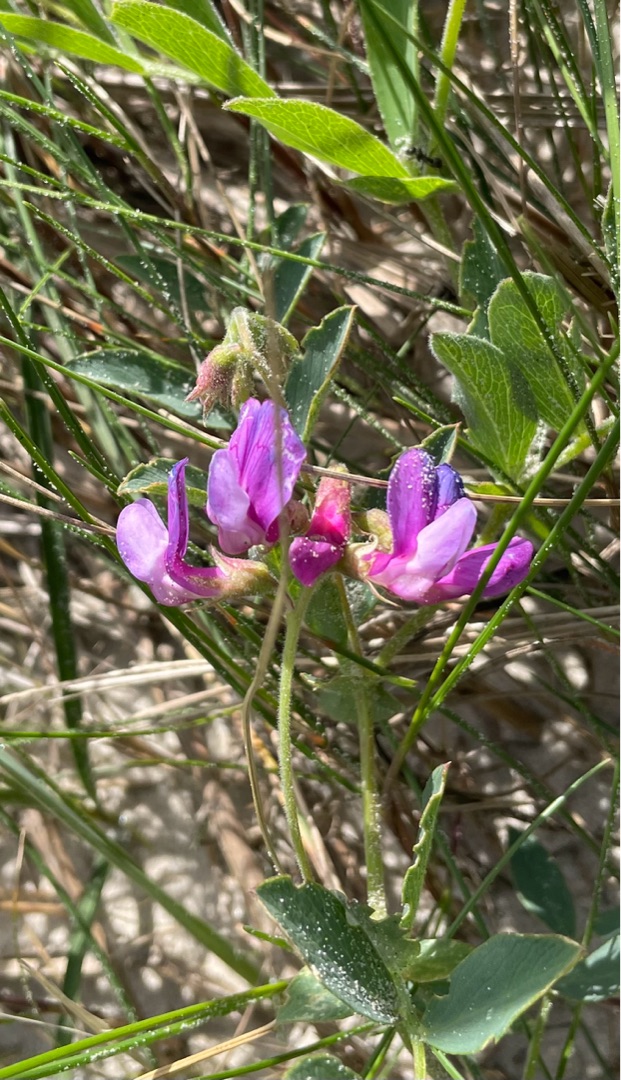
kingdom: Plantae
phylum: Tracheophyta
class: Magnoliopsida
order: Fabales
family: Fabaceae
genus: Lathyrus
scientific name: Lathyrus japonicus
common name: Strand-fladbælg
